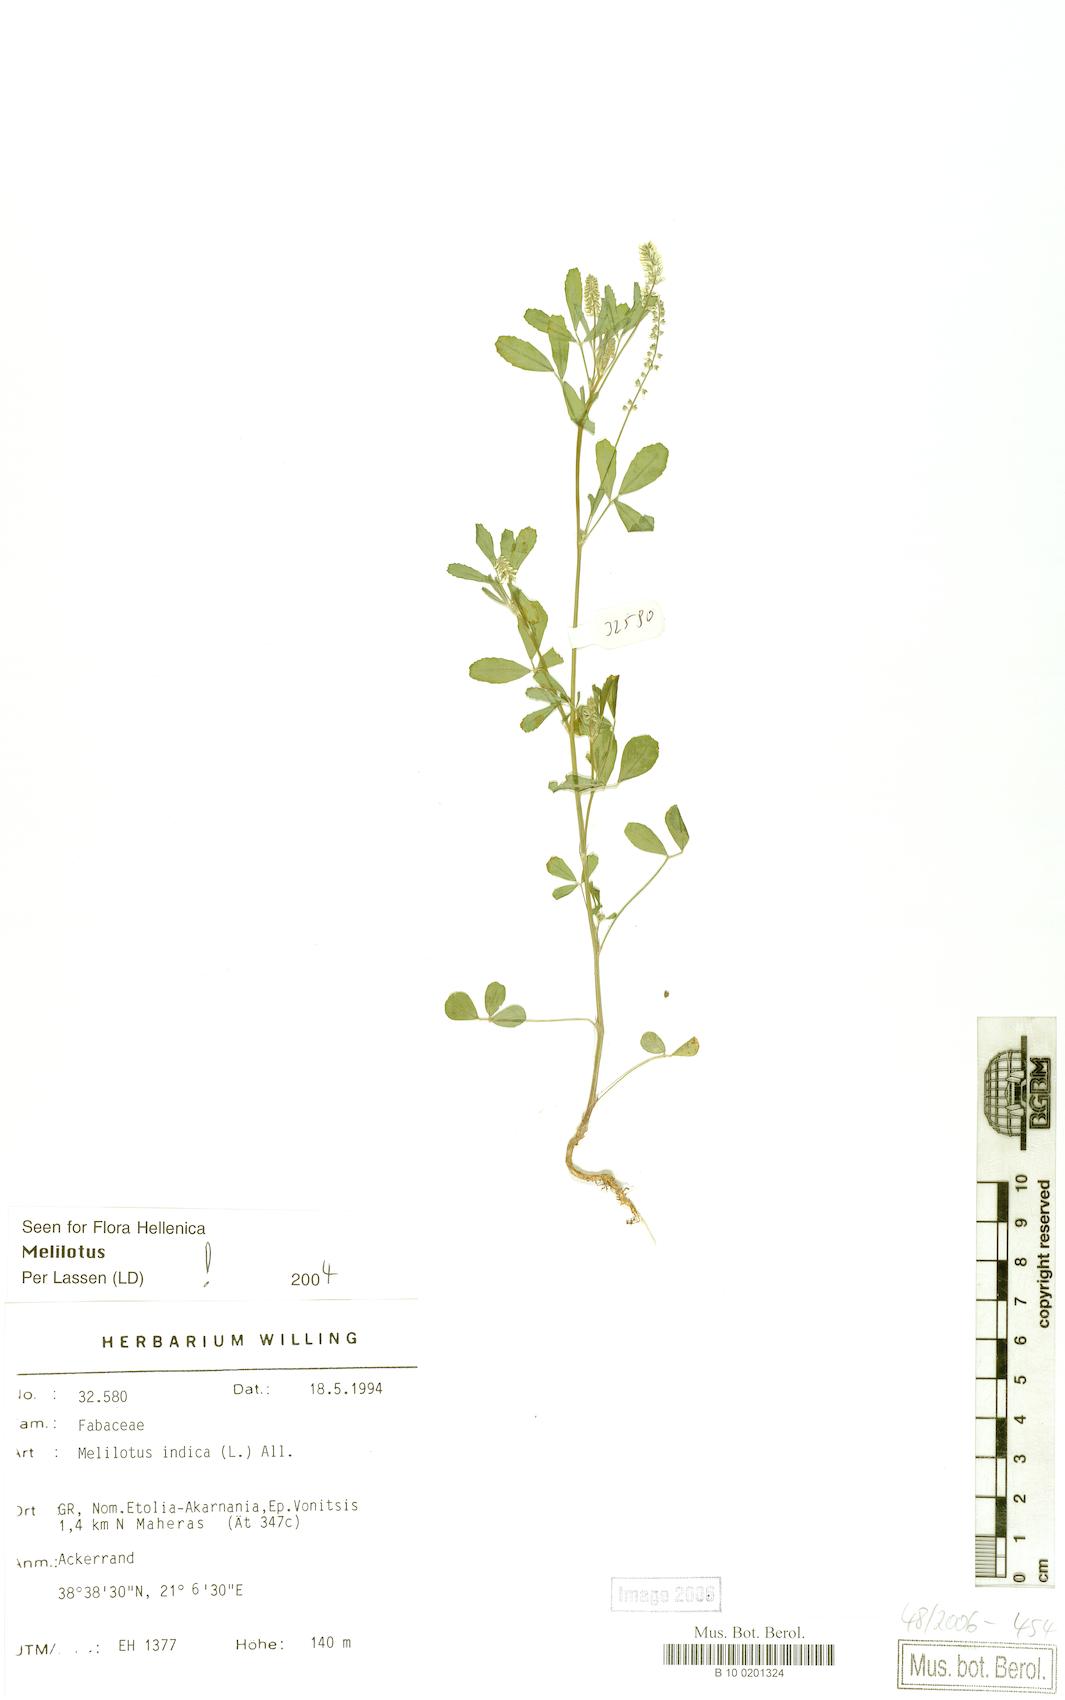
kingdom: Plantae
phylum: Tracheophyta
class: Magnoliopsida
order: Fabales
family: Fabaceae
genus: Melilotus
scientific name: Melilotus indicus
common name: Small melilot
